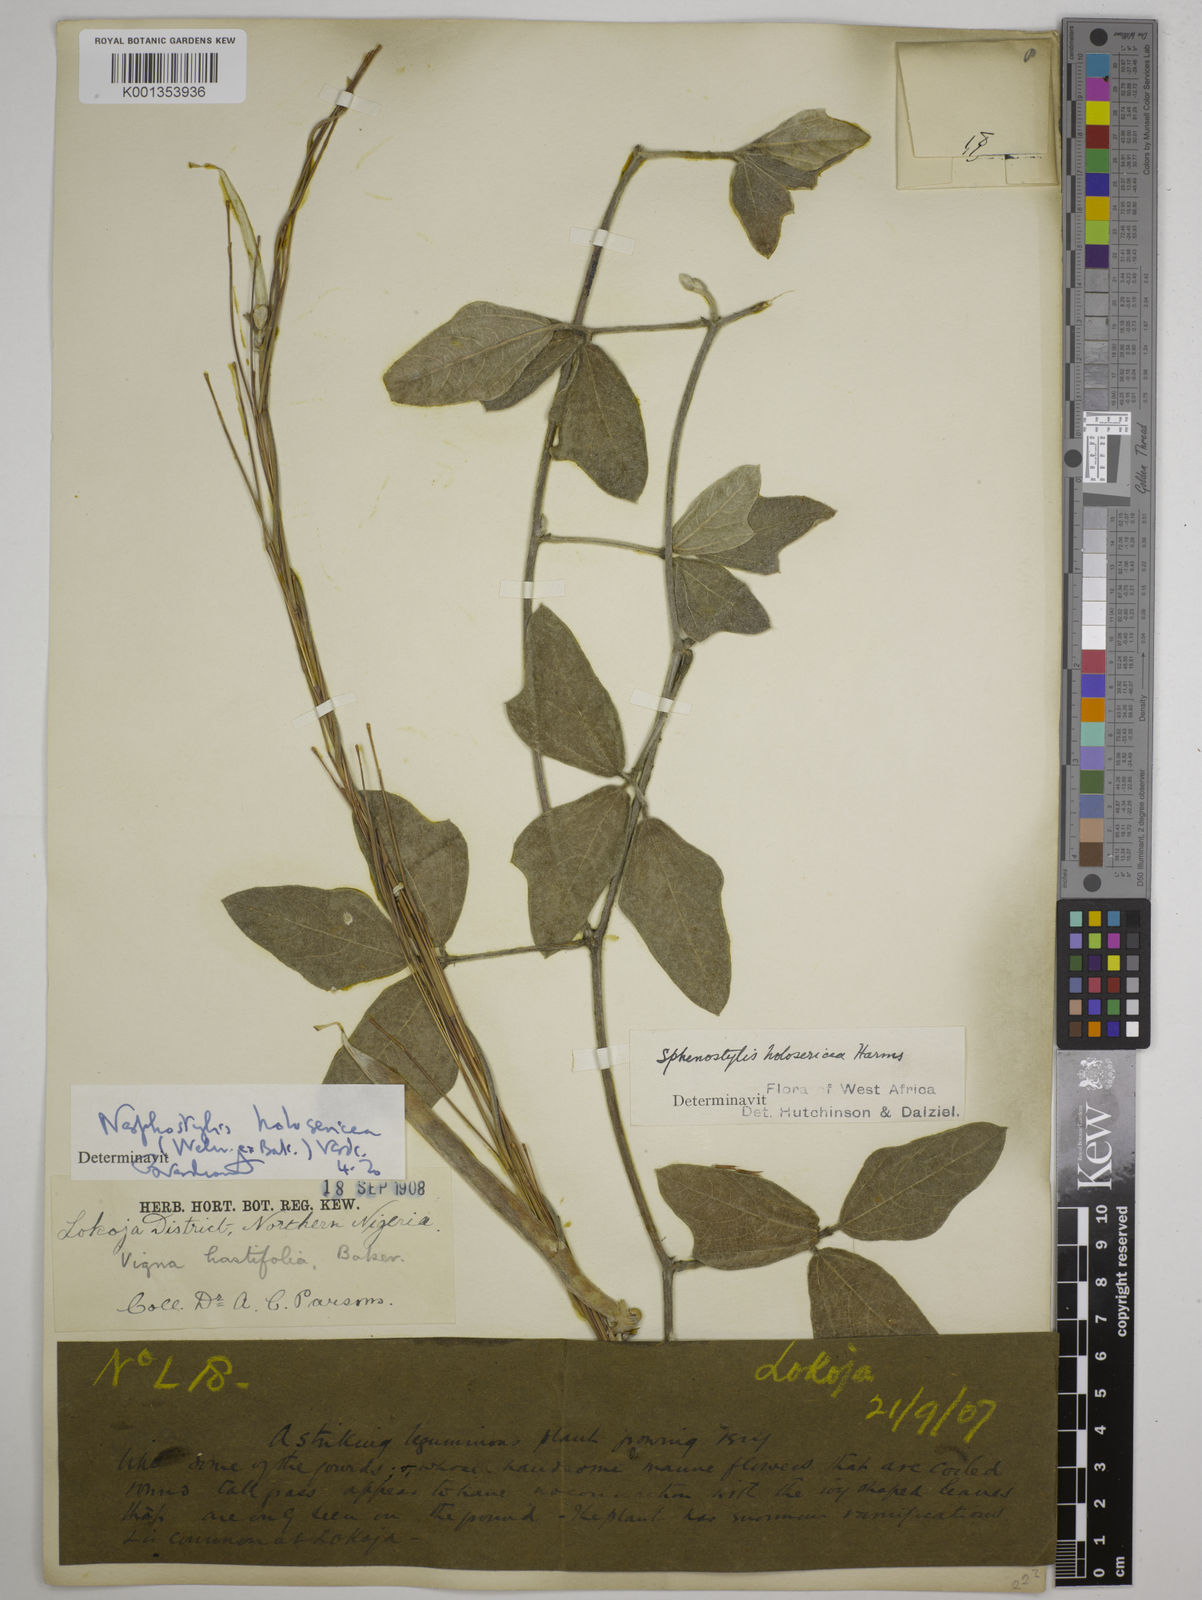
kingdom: Plantae
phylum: Tracheophyta
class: Magnoliopsida
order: Fabales
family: Fabaceae
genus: Nesphostylis
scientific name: Nesphostylis holosericea
